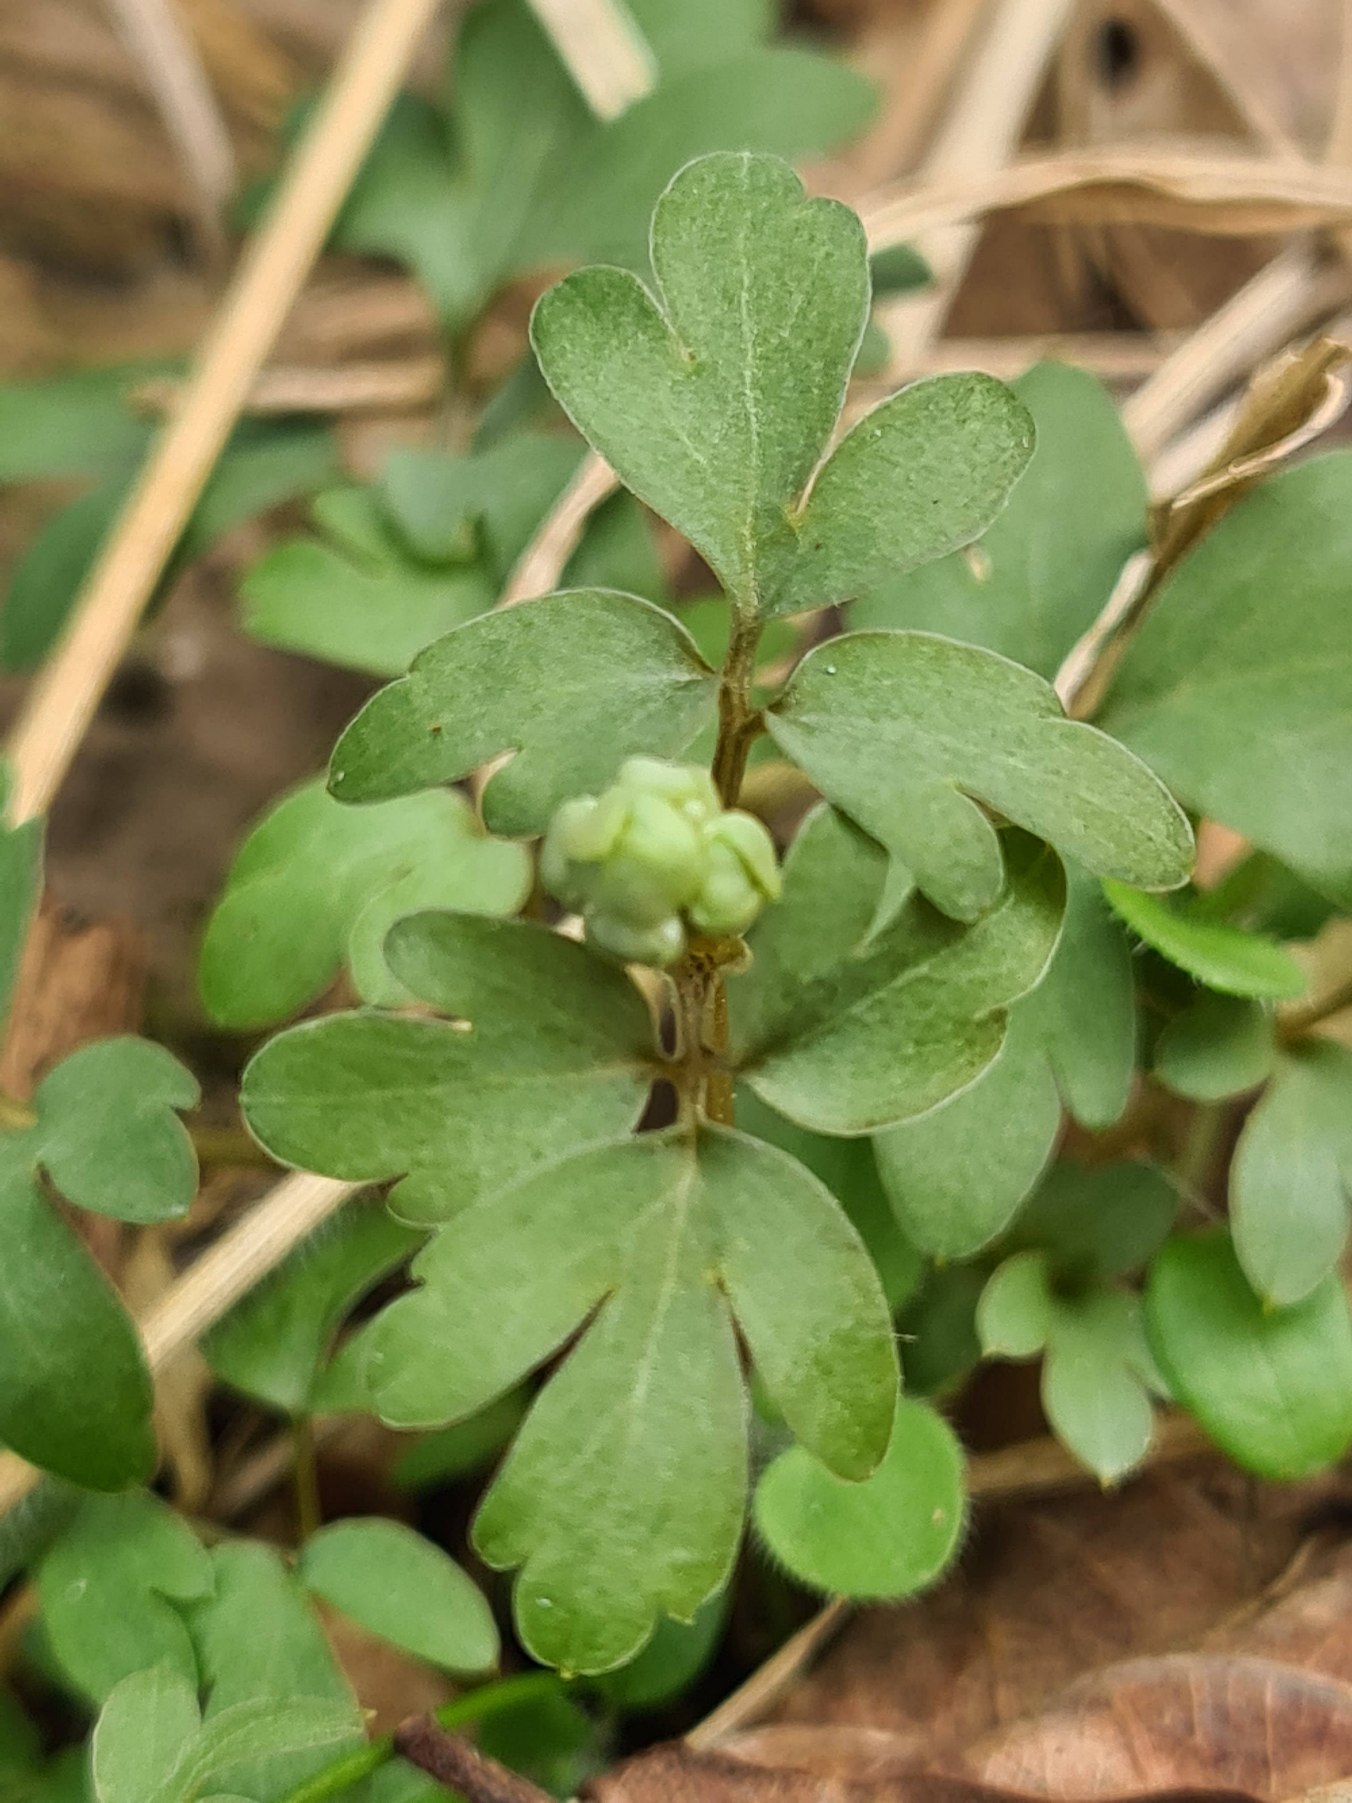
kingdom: Plantae
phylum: Tracheophyta
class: Magnoliopsida
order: Dipsacales
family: Viburnaceae
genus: Adoxa
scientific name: Adoxa moschatellina
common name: Desmerurt
